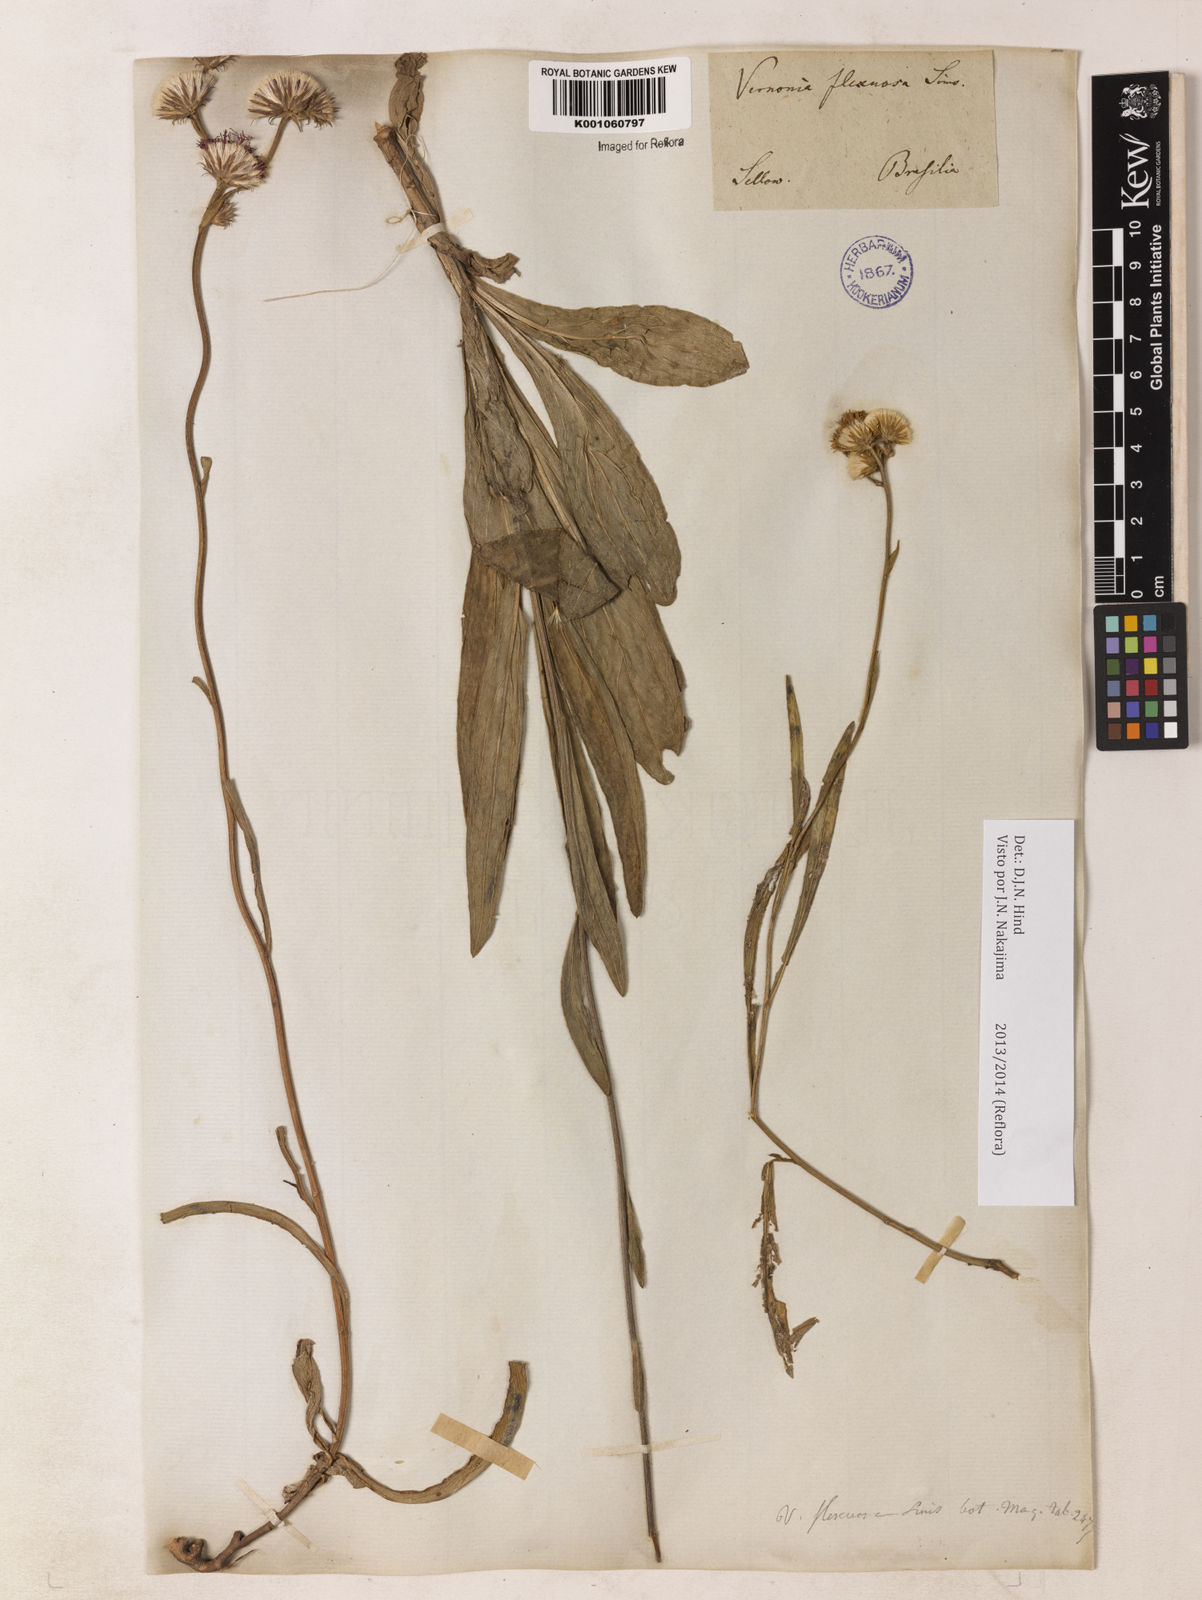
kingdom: Plantae
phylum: Tracheophyta
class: Magnoliopsida
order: Asterales
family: Asteraceae
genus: Chrysolaena
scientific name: Chrysolaena flexuosa
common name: Zig-zag vernonia
